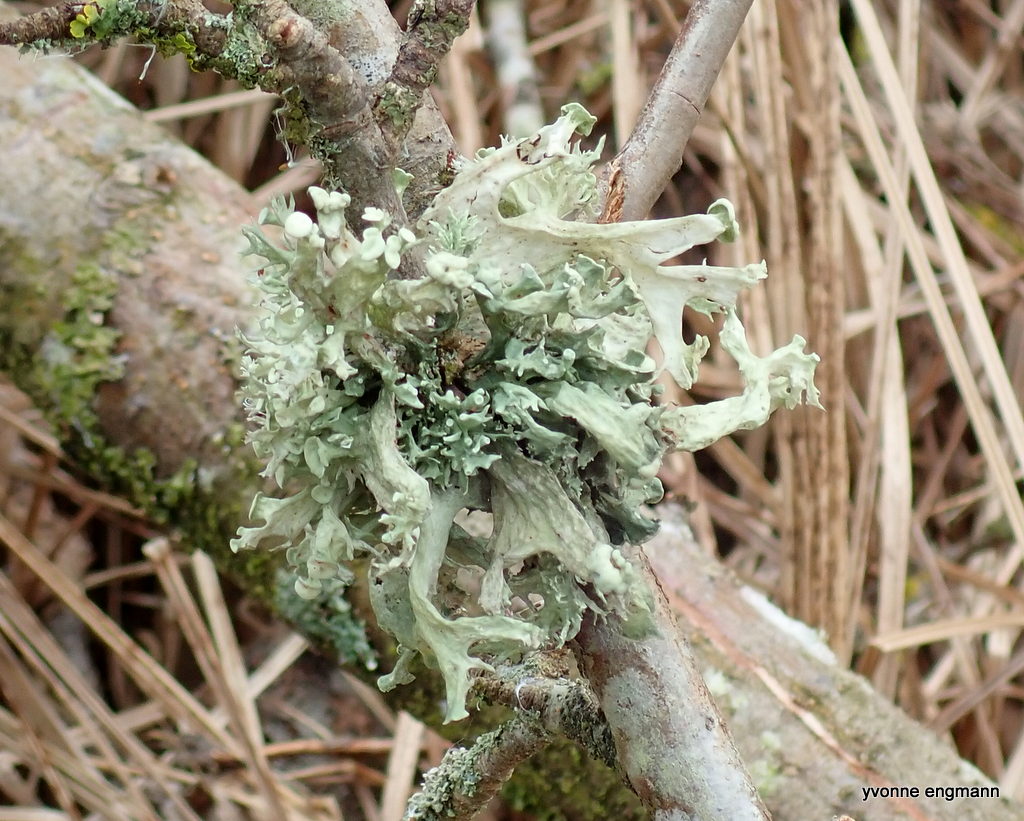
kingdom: Fungi
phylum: Ascomycota
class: Lecanoromycetes
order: Lecanorales
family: Ramalinaceae
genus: Ramalina
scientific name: Ramalina fastigiata
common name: tue-grenlav
